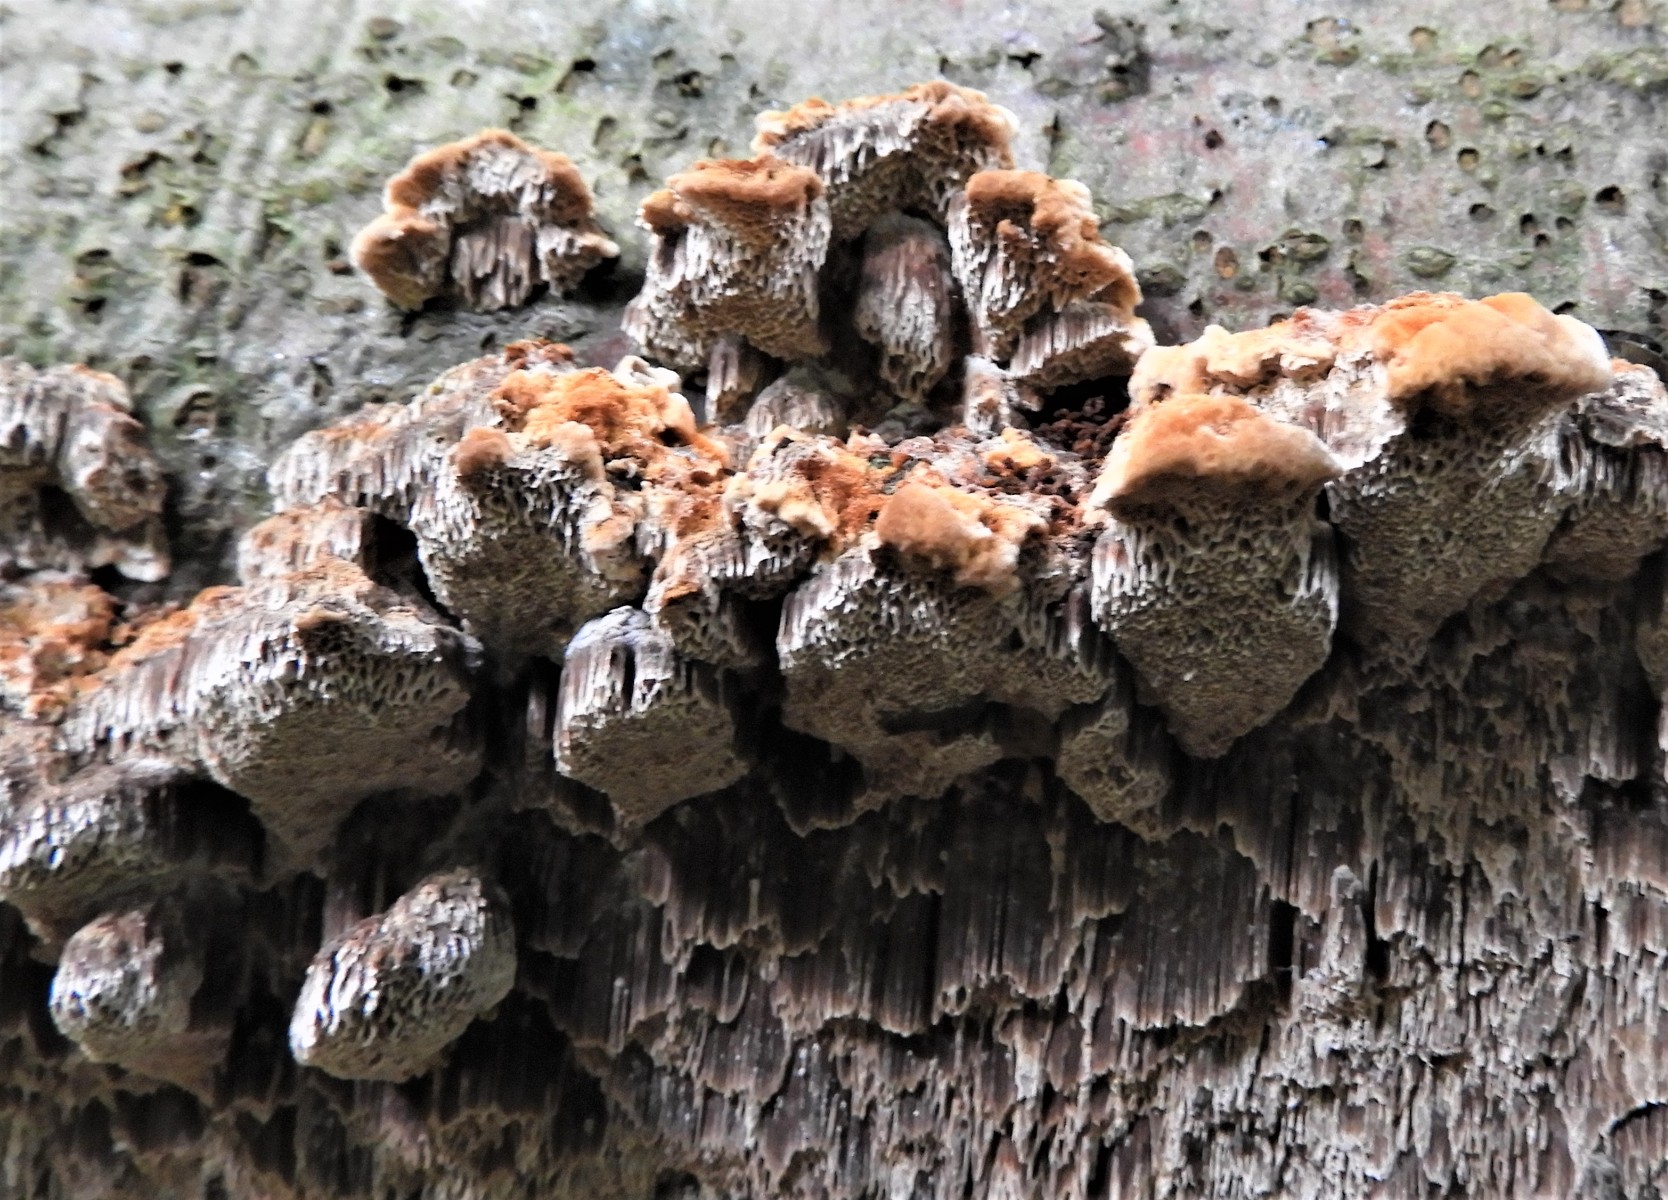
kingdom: Fungi
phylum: Basidiomycota
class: Agaricomycetes
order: Hymenochaetales
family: Hymenochaetaceae
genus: Mensularia
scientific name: Mensularia nodulosa
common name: bøge-spejlporesvamp
